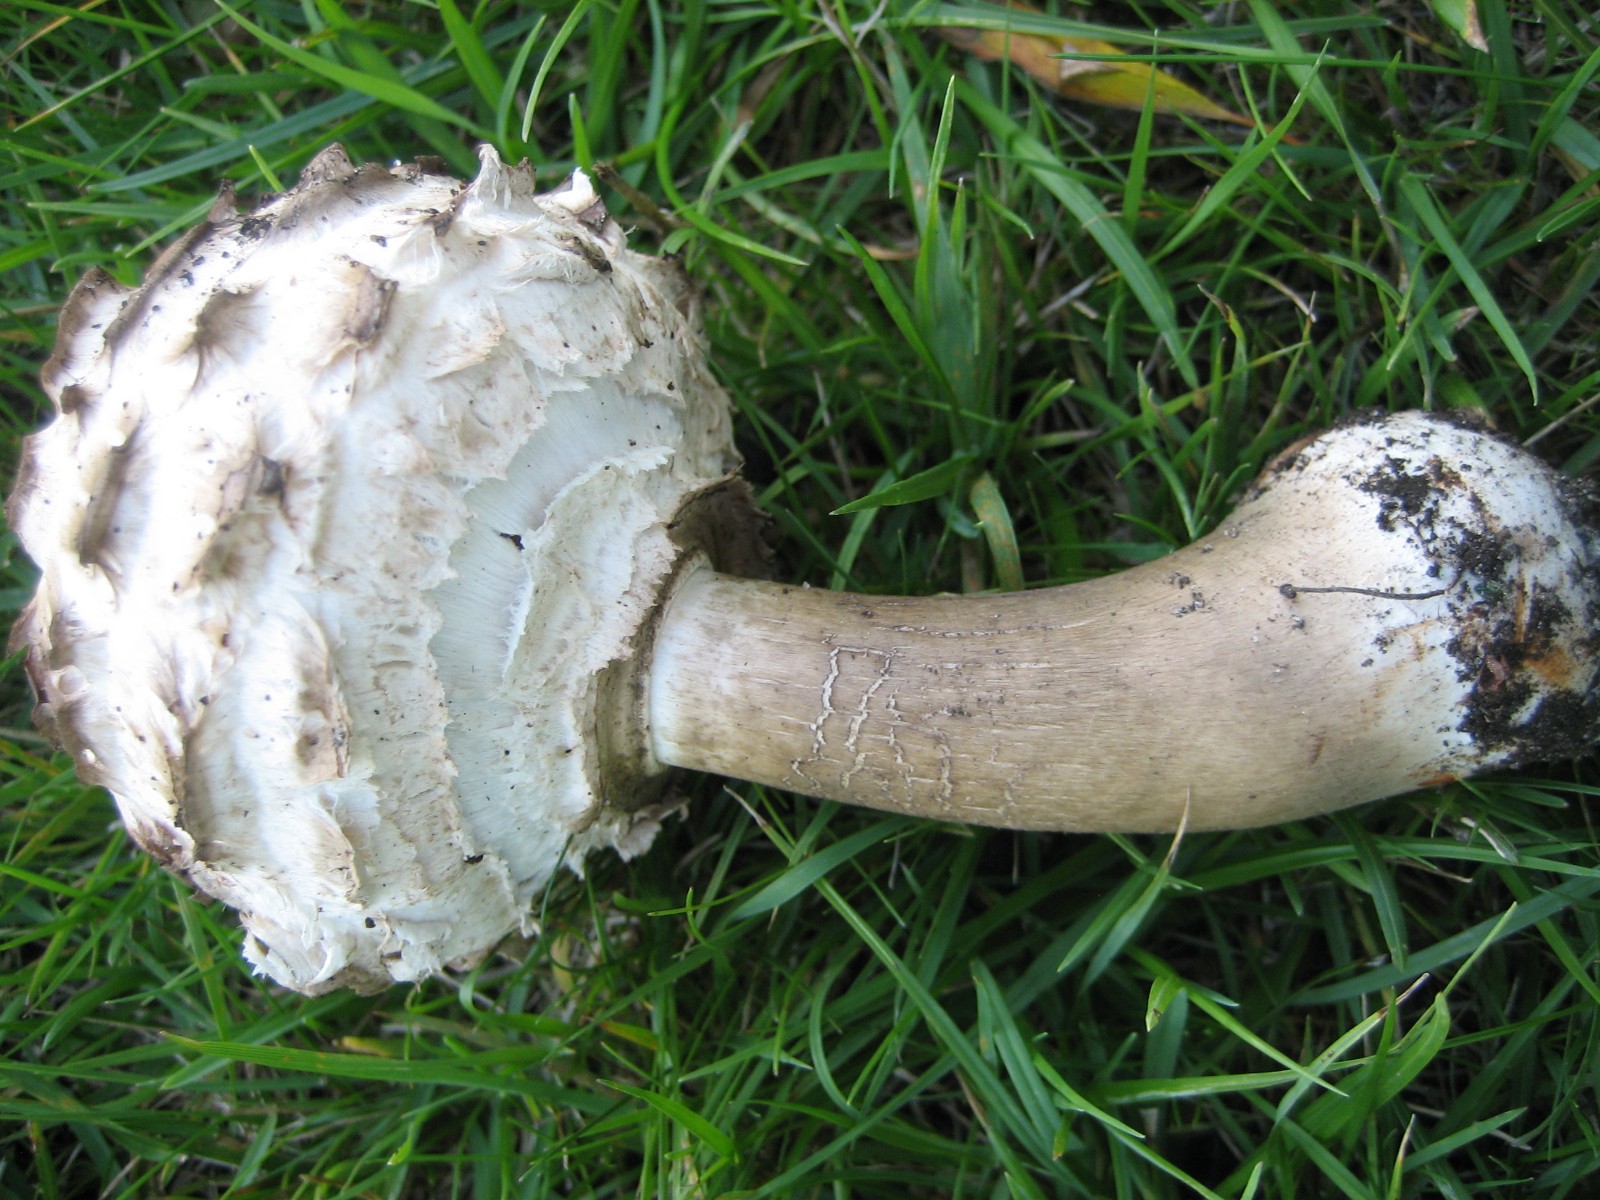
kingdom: Fungi
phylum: Basidiomycota
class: Agaricomycetes
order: Agaricales
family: Agaricaceae
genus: Chlorophyllum
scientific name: Chlorophyllum olivieri
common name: almindelig rabarberhat
